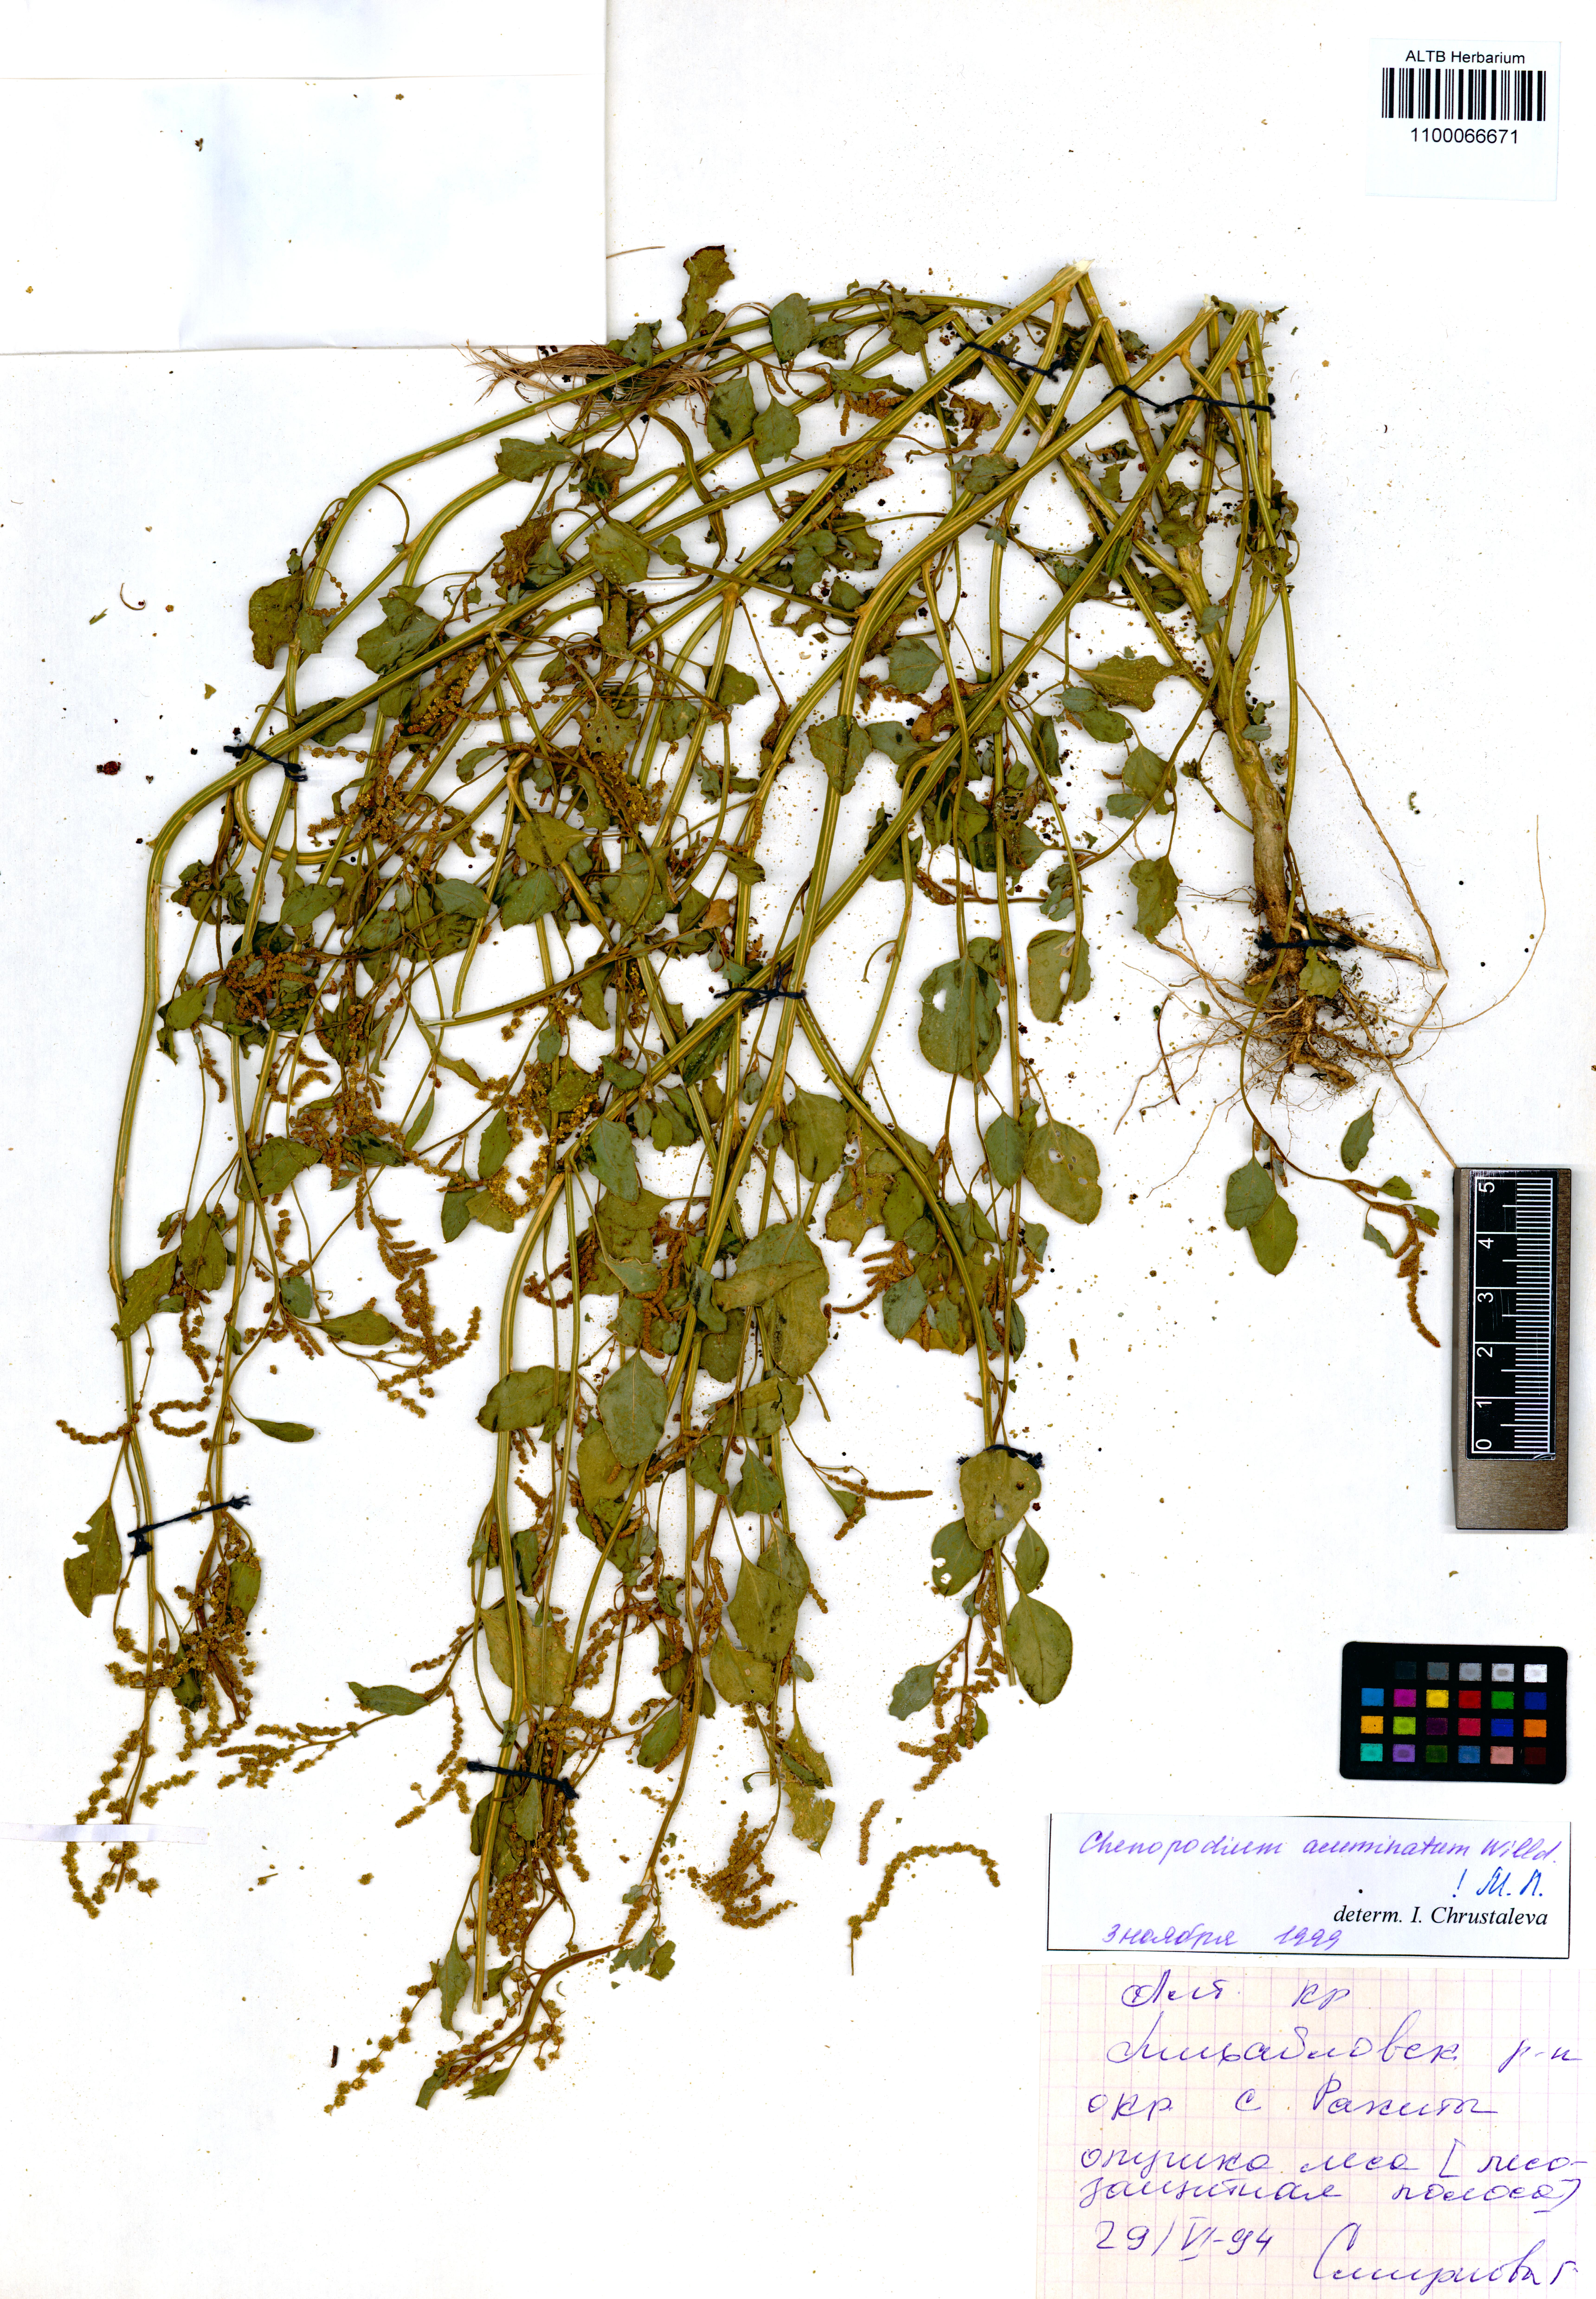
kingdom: Plantae
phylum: Tracheophyta
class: Magnoliopsida
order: Caryophyllales
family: Amaranthaceae
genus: Chenopodium
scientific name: Chenopodium acuminatum
